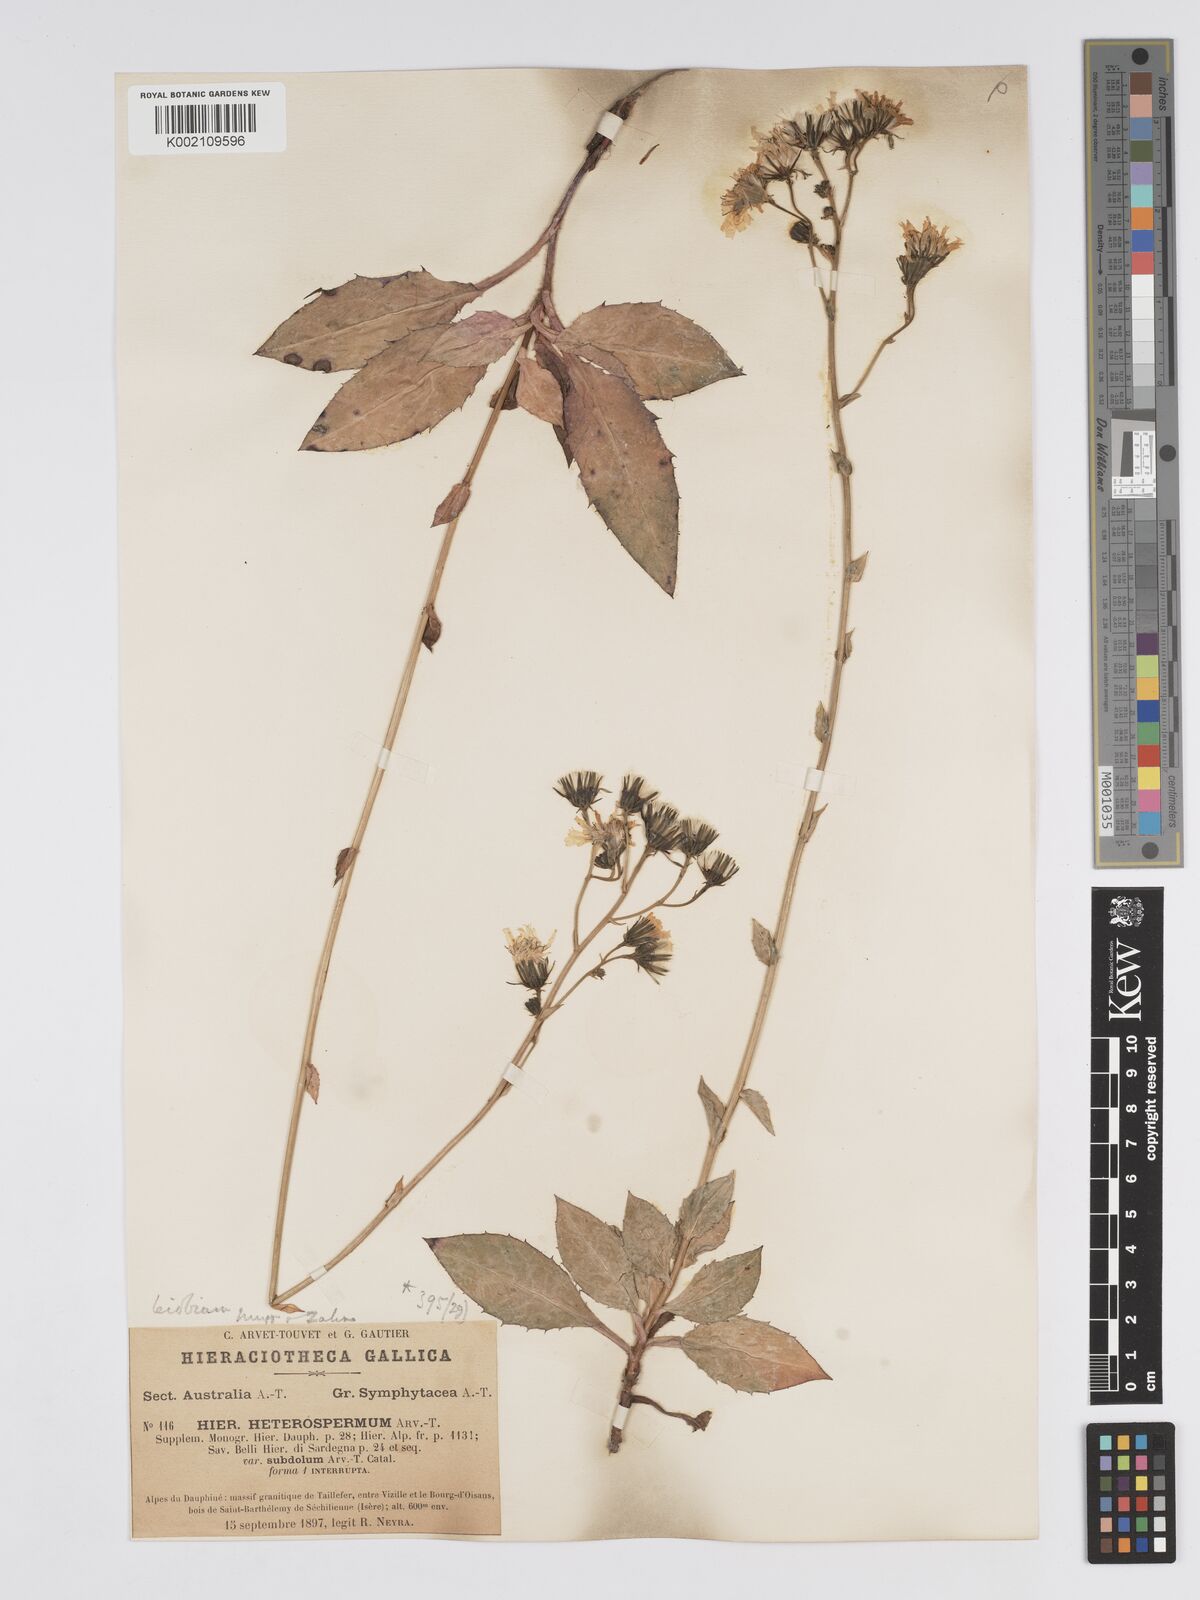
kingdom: Plantae
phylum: Tracheophyta
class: Magnoliopsida
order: Asterales
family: Asteraceae
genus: Hieracium
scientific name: Hieracium racemosum
